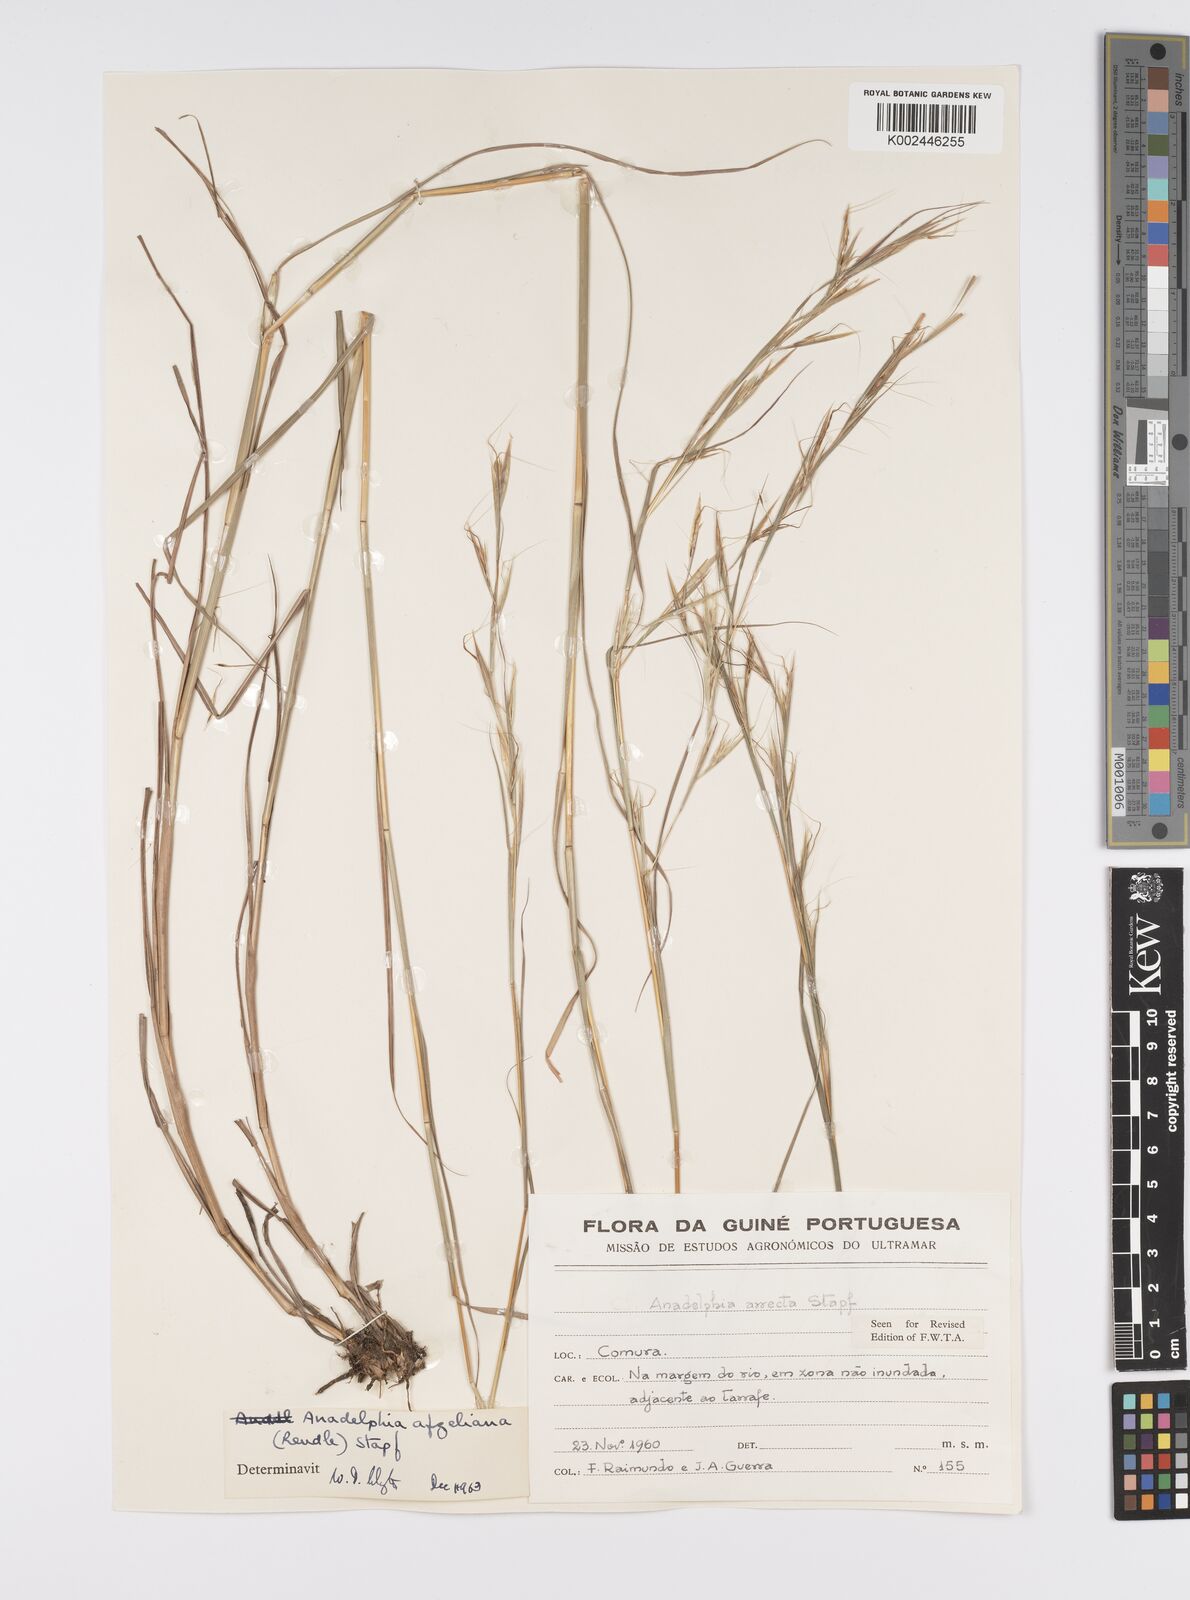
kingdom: Plantae
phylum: Tracheophyta
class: Liliopsida
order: Poales
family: Poaceae
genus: Anadelphia
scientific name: Anadelphia afzeliana
